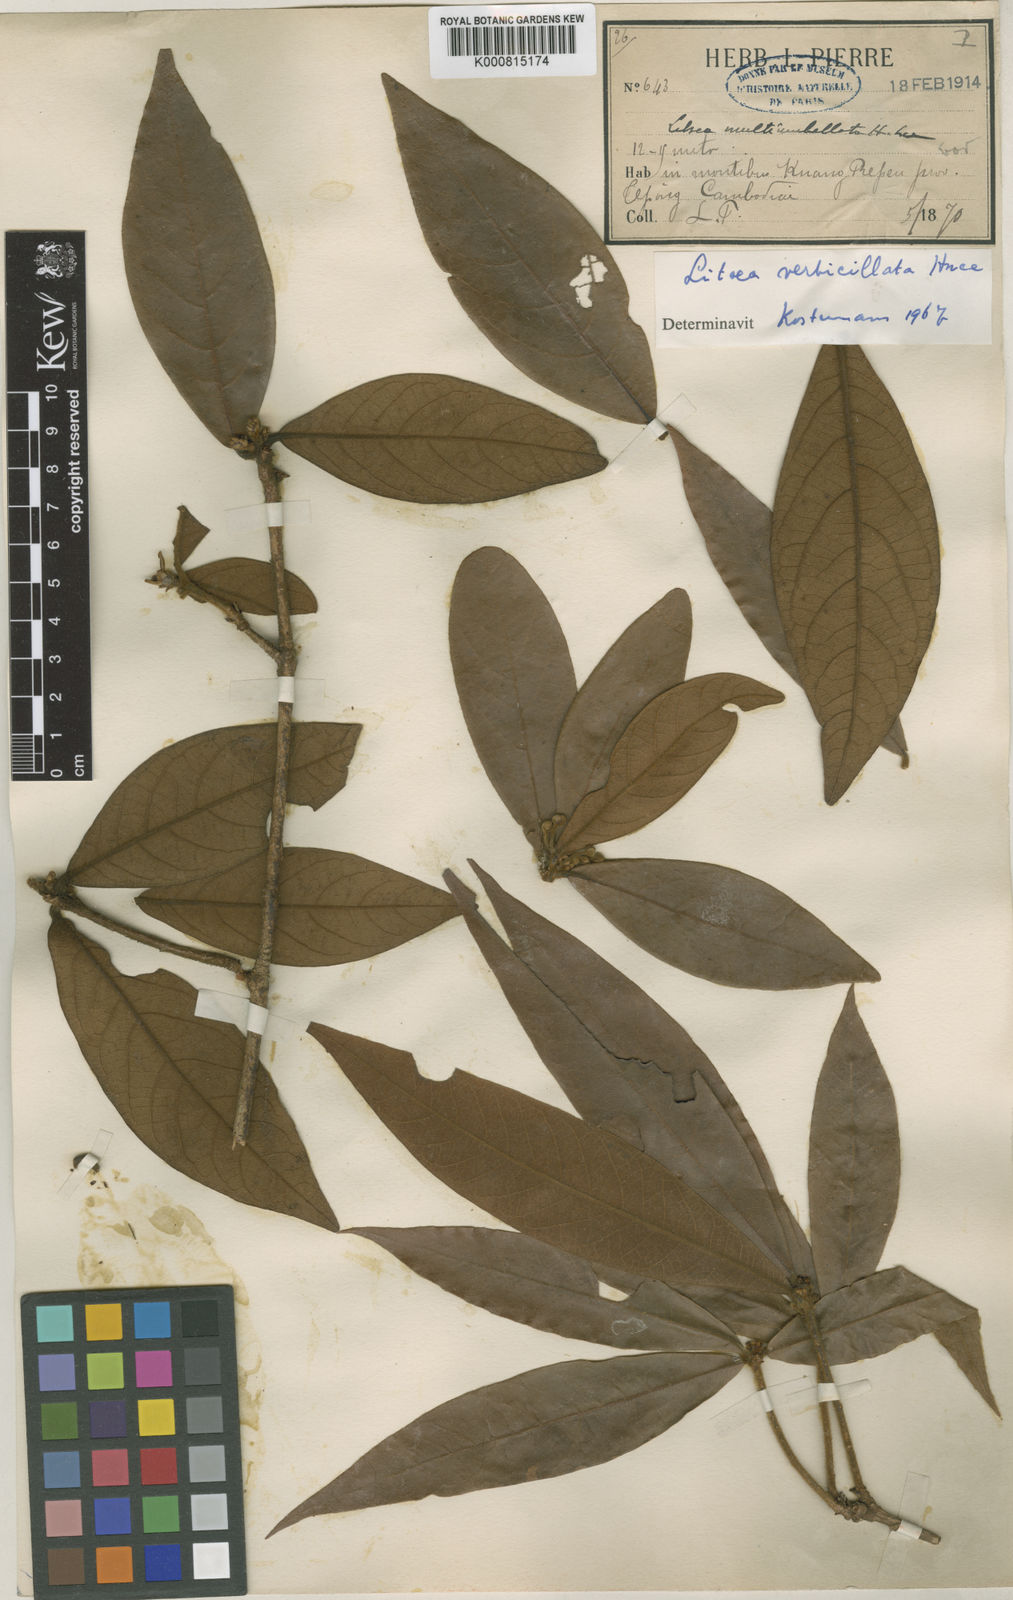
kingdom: Plantae
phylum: Tracheophyta
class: Magnoliopsida
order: Laurales
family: Lauraceae
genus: Litsea
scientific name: Litsea verticillata
